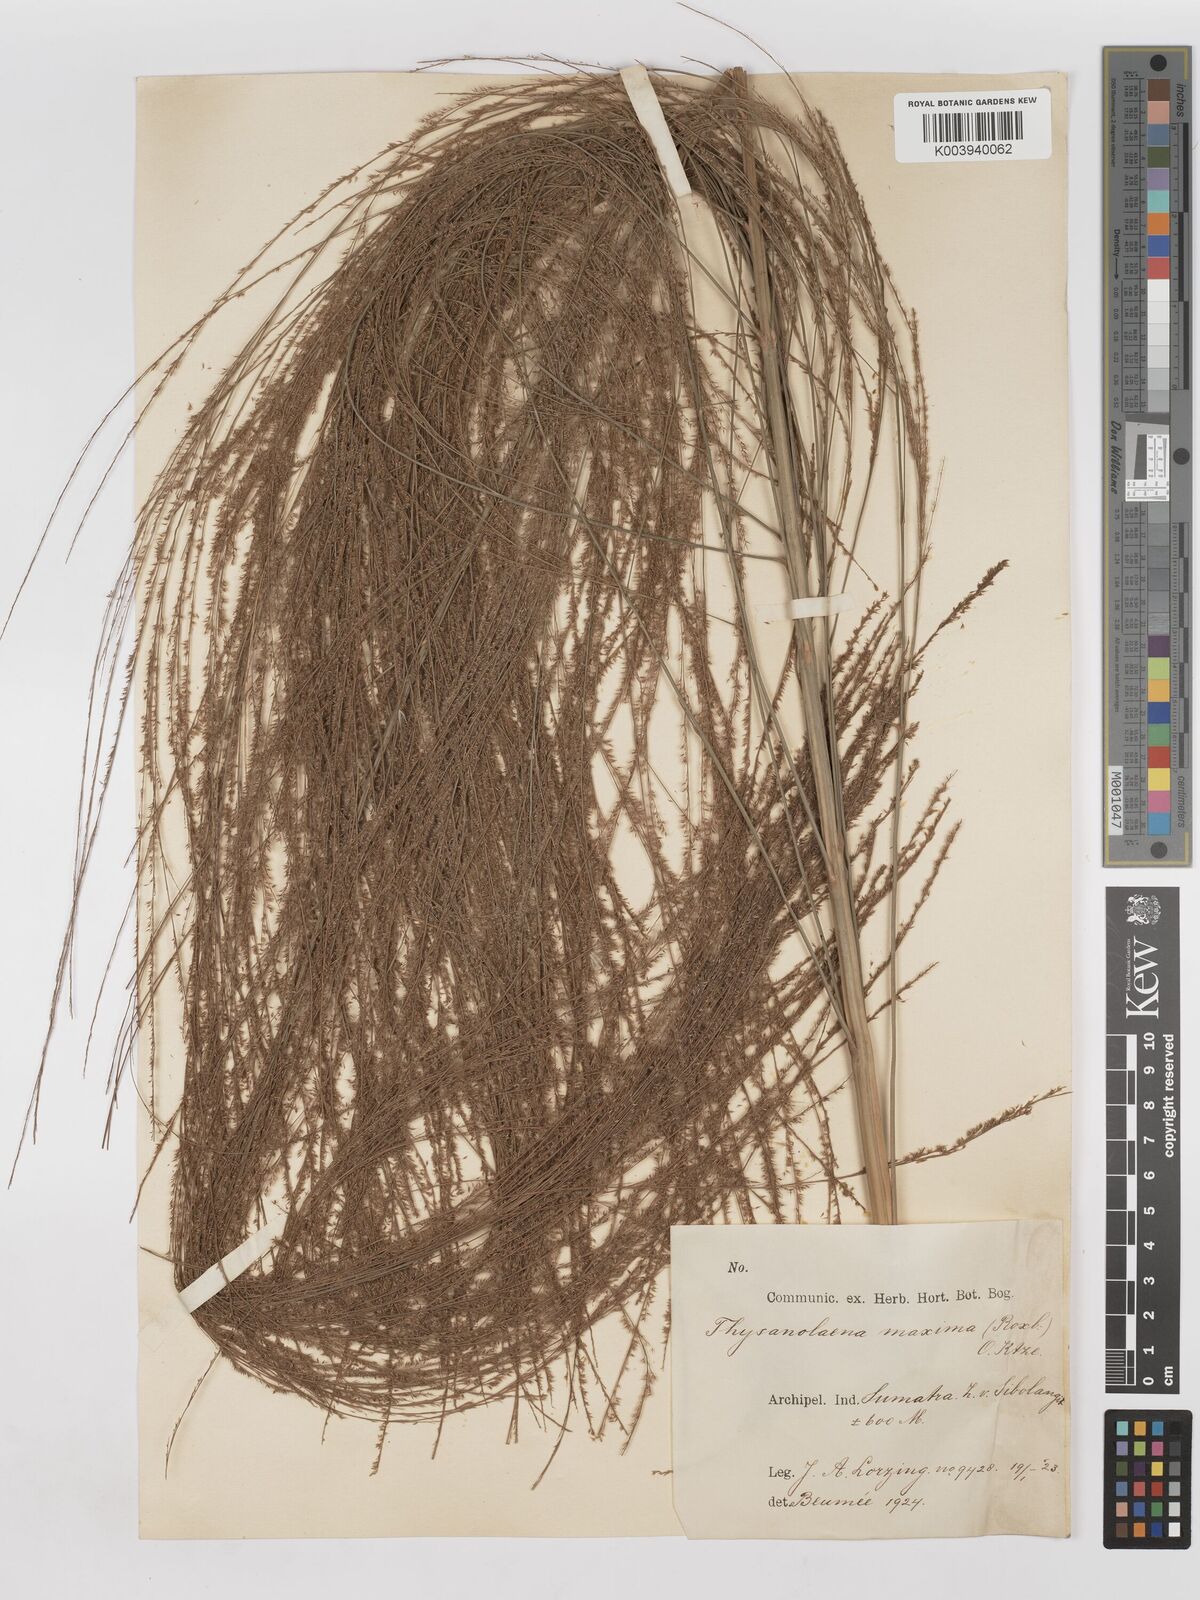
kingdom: Plantae
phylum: Tracheophyta
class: Liliopsida
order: Poales
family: Poaceae
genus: Thysanolaena
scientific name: Thysanolaena latifolia
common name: Tiger grass
